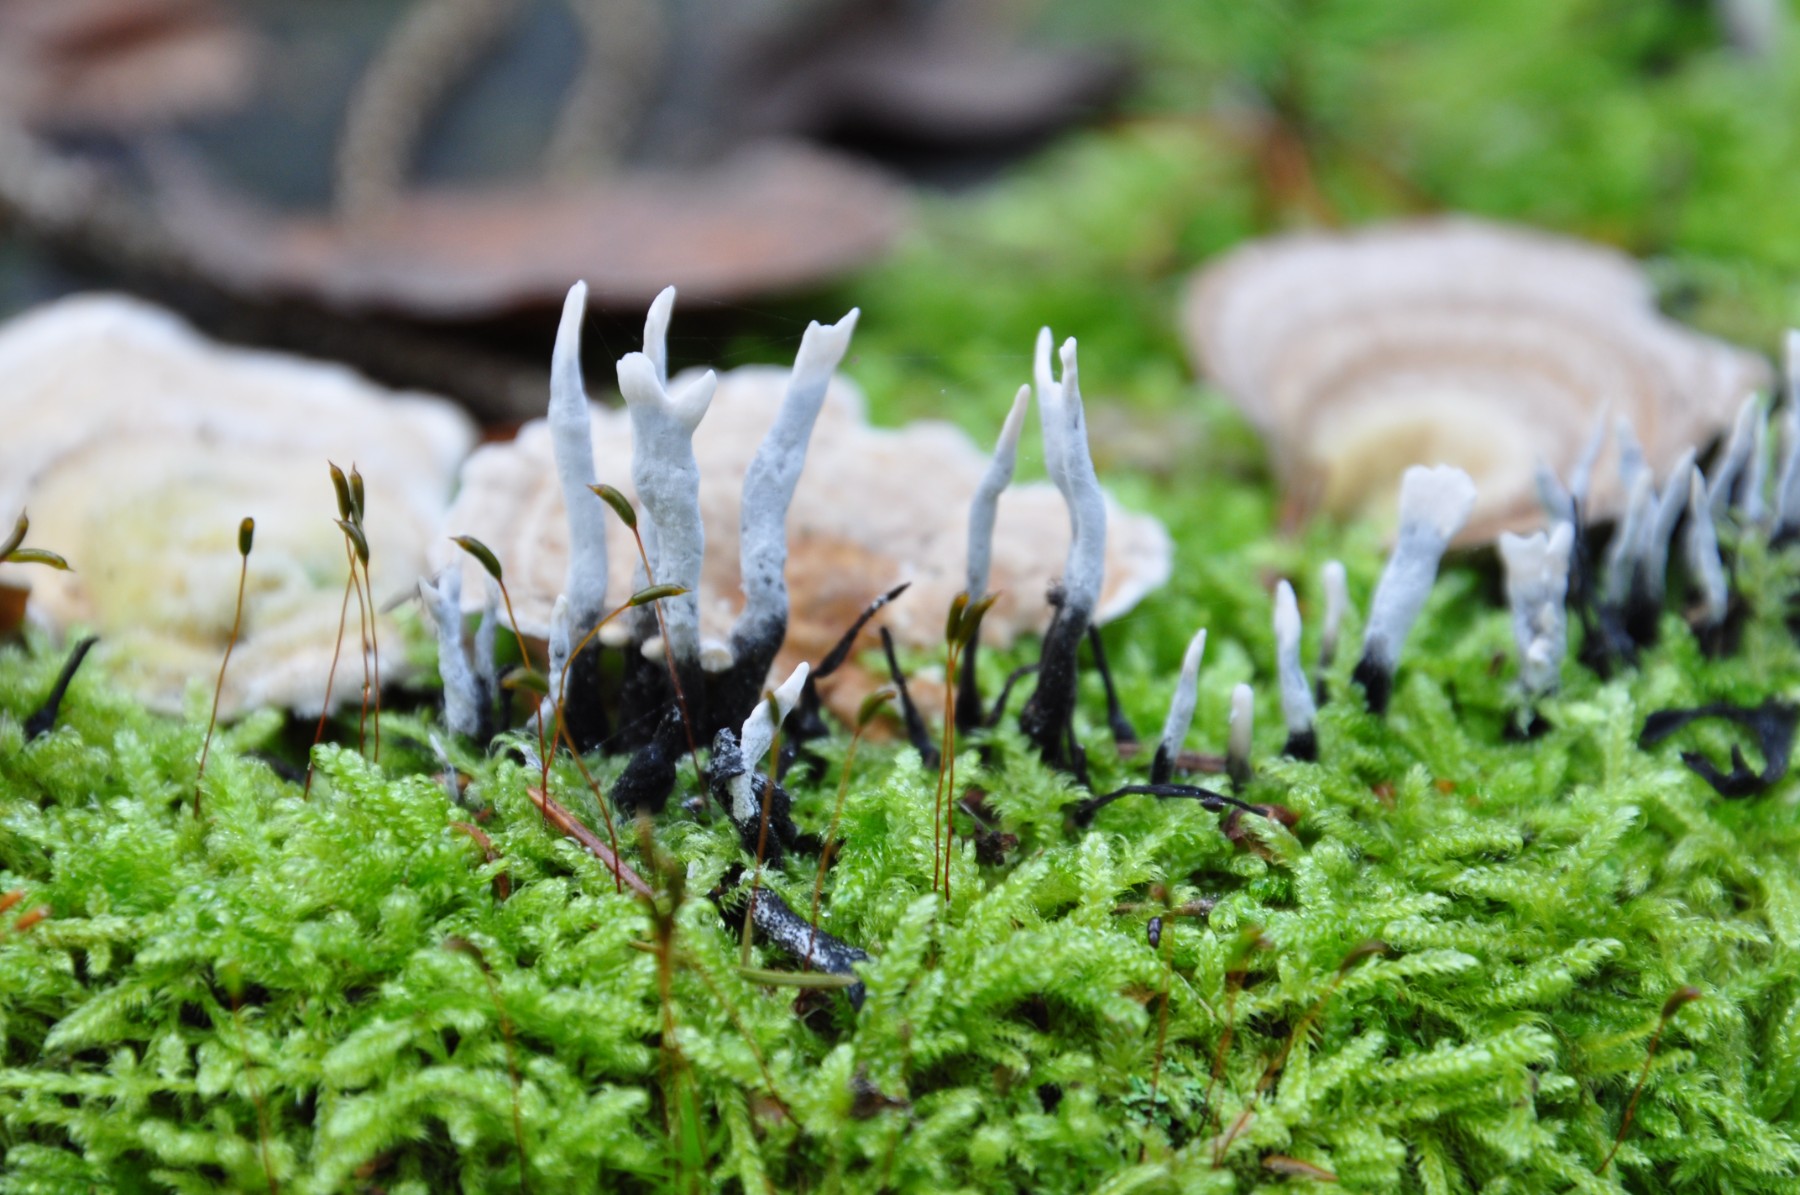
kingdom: Fungi
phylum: Ascomycota
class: Sordariomycetes
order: Xylariales
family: Xylariaceae
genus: Xylaria
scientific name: Xylaria hypoxylon
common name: grenet stødsvamp
